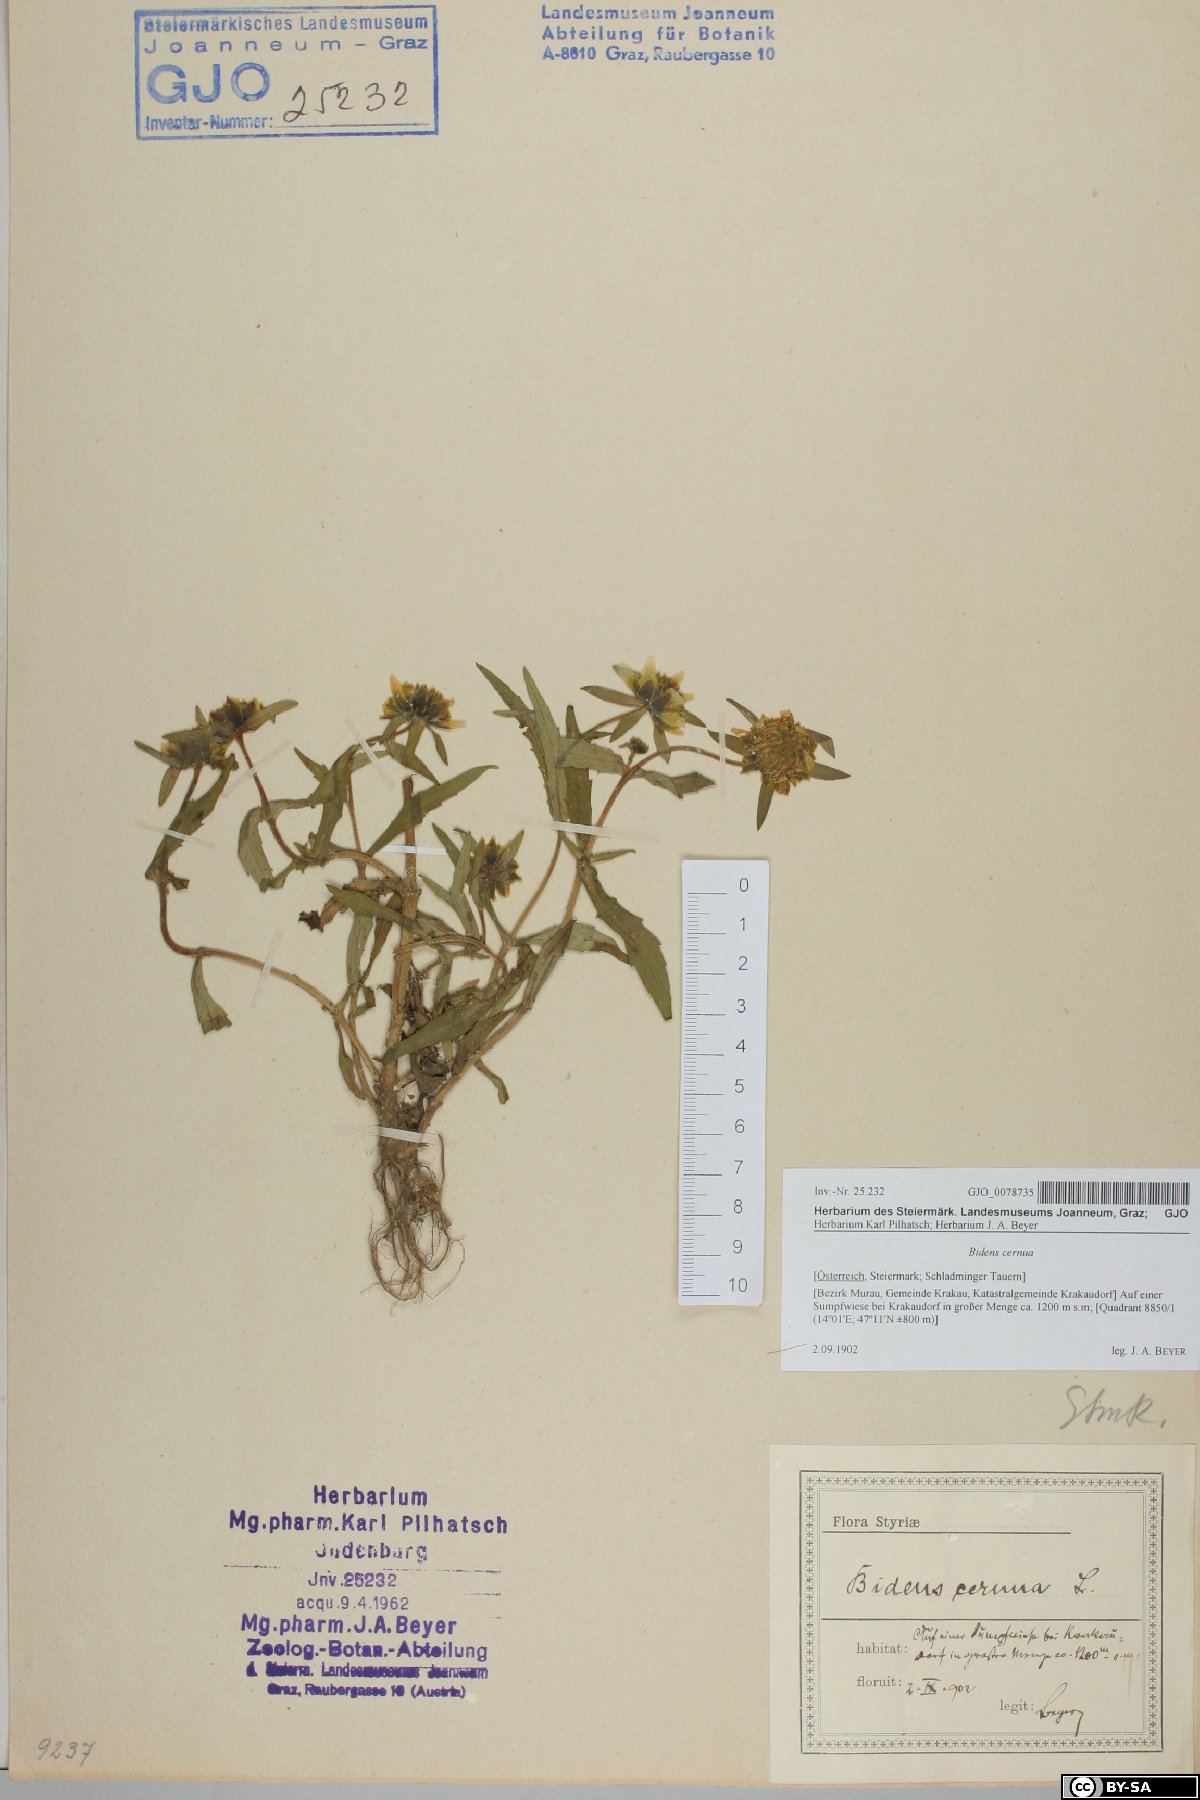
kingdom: Plantae
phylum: Tracheophyta
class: Magnoliopsida
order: Asterales
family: Asteraceae
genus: Bidens
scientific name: Bidens cernua
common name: Nodding bur-marigold
